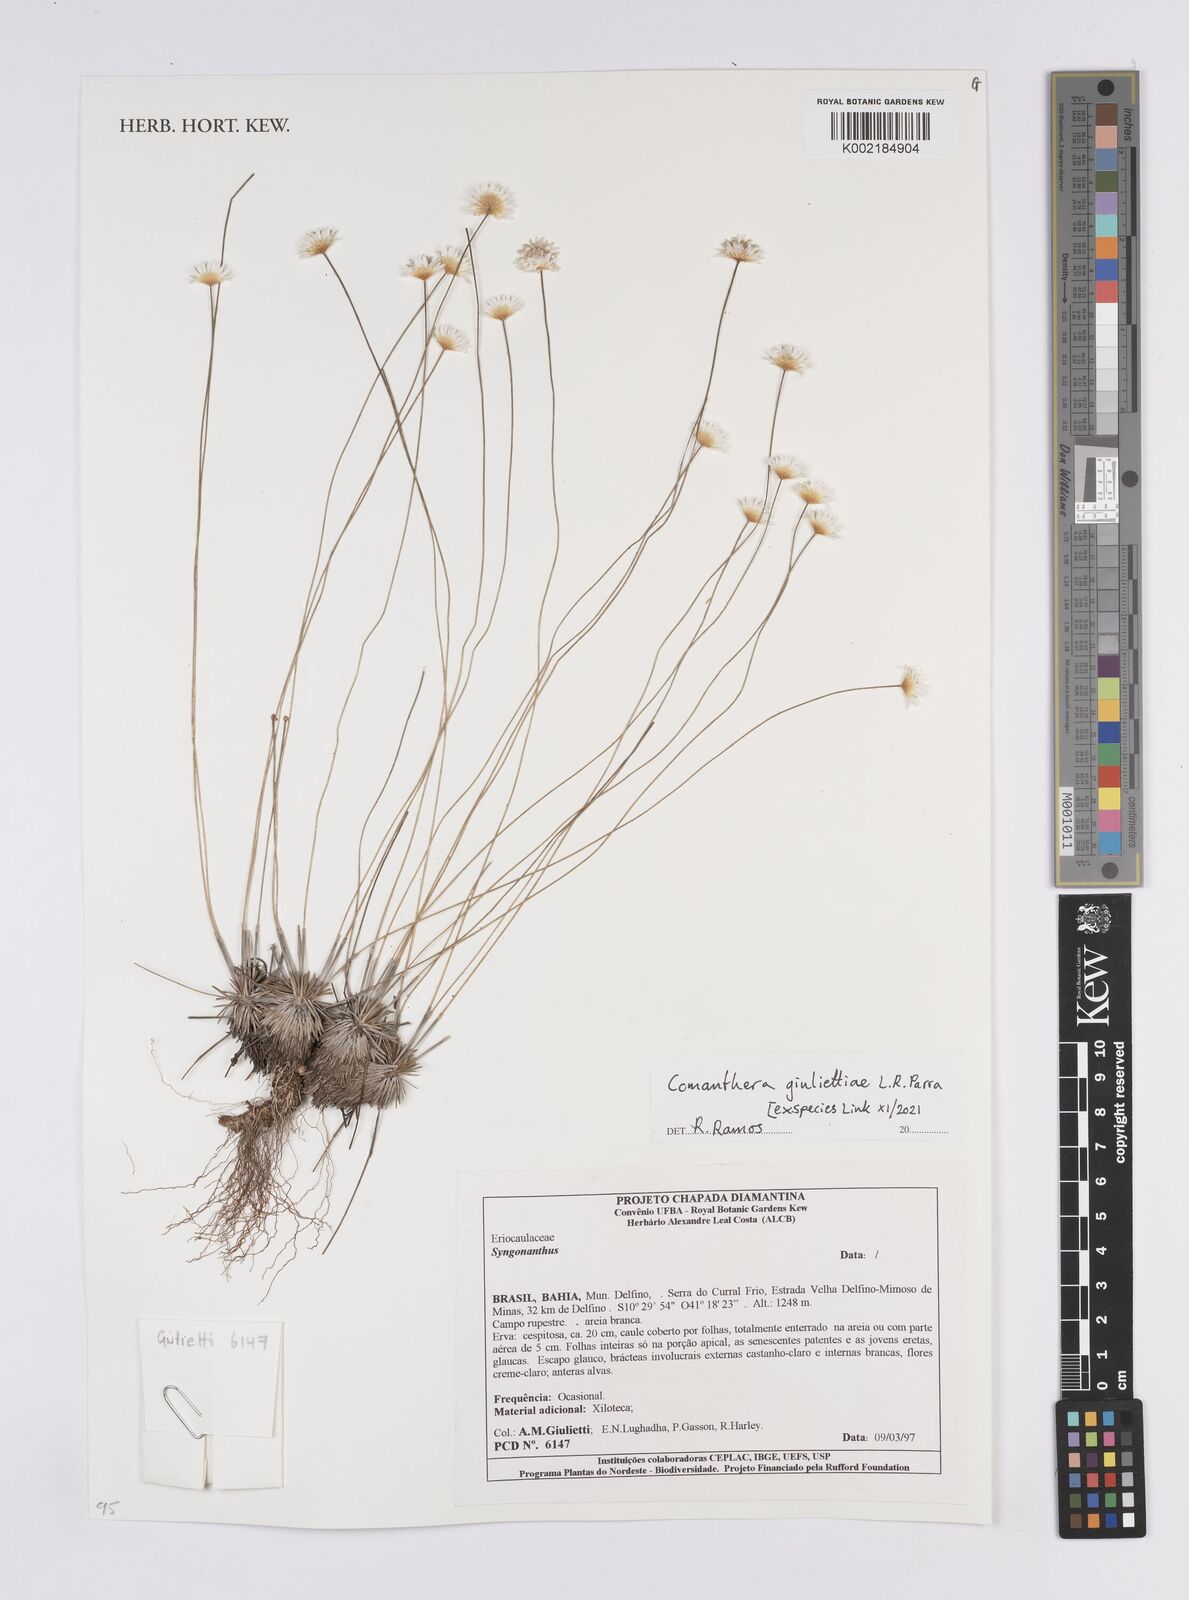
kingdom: Plantae
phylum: Tracheophyta
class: Liliopsida
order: Poales
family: Eriocaulaceae
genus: Comanthera
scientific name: Comanthera giuliettiae
